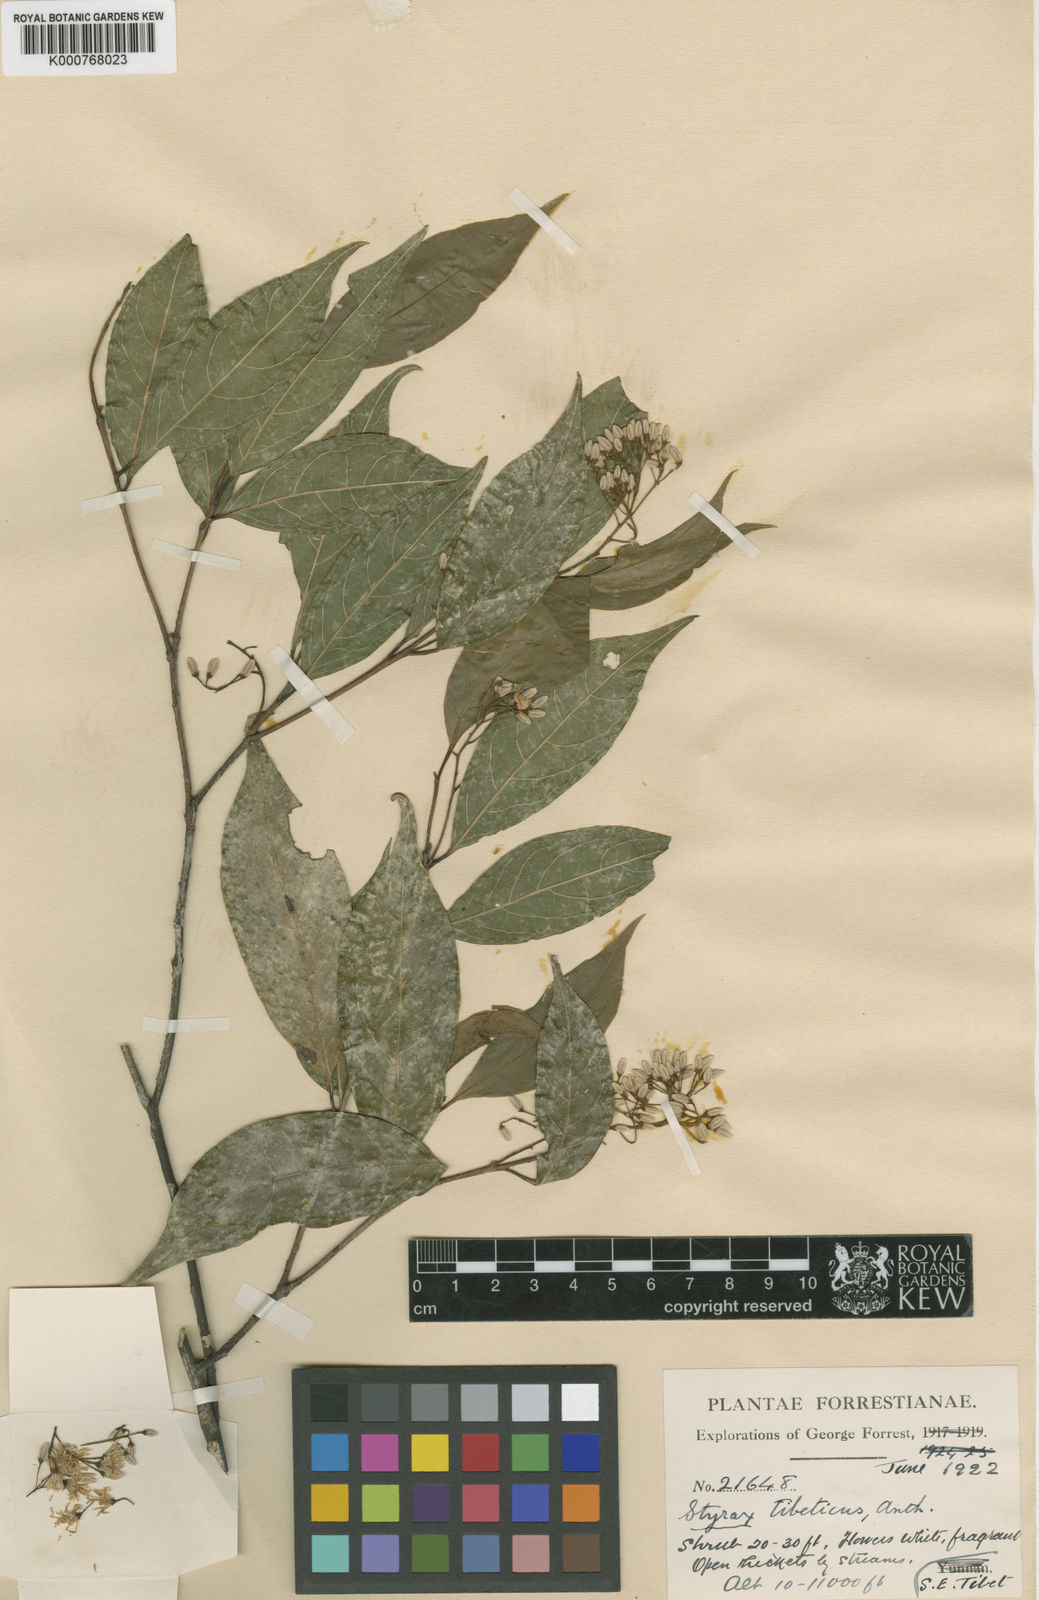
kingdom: Plantae
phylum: Tracheophyta
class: Magnoliopsida
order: Ericales
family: Styracaceae
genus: Huodendron
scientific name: Huodendron tibeticum
